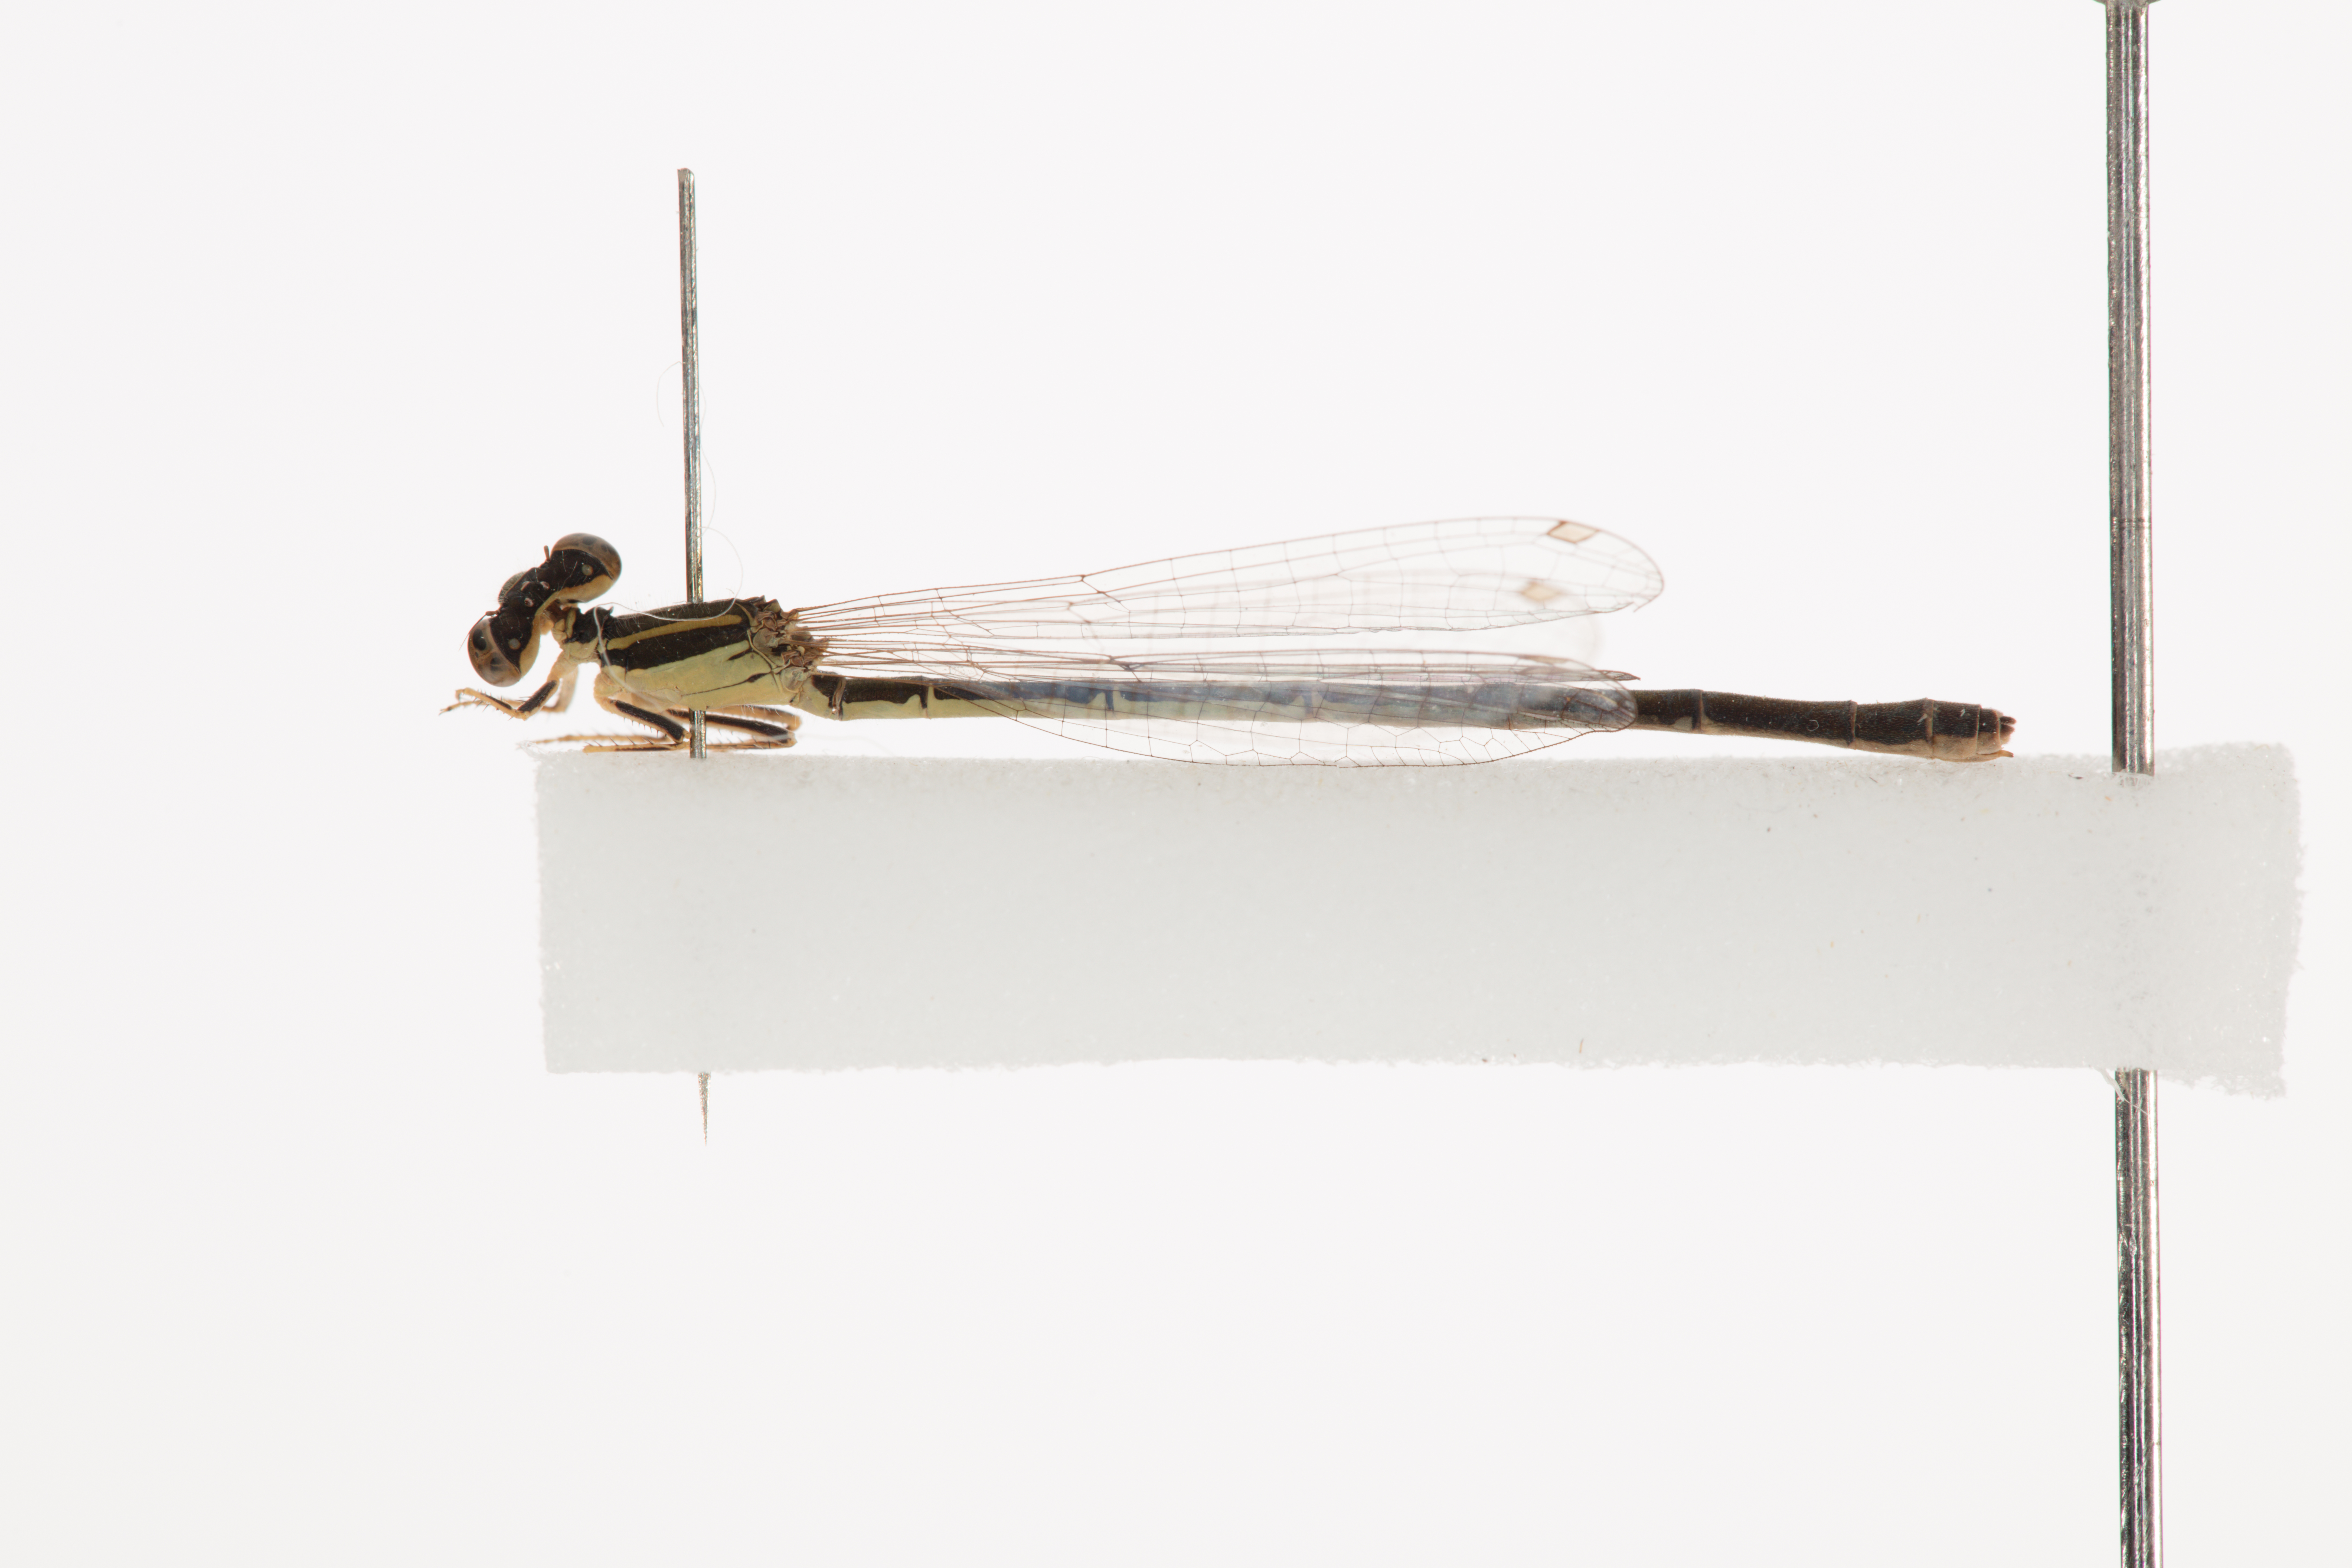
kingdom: Animalia
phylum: Arthropoda
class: Insecta
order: Odonata
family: Coenagrionidae
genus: Ischnura
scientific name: Ischnura aurora
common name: Gossamer damselfly
